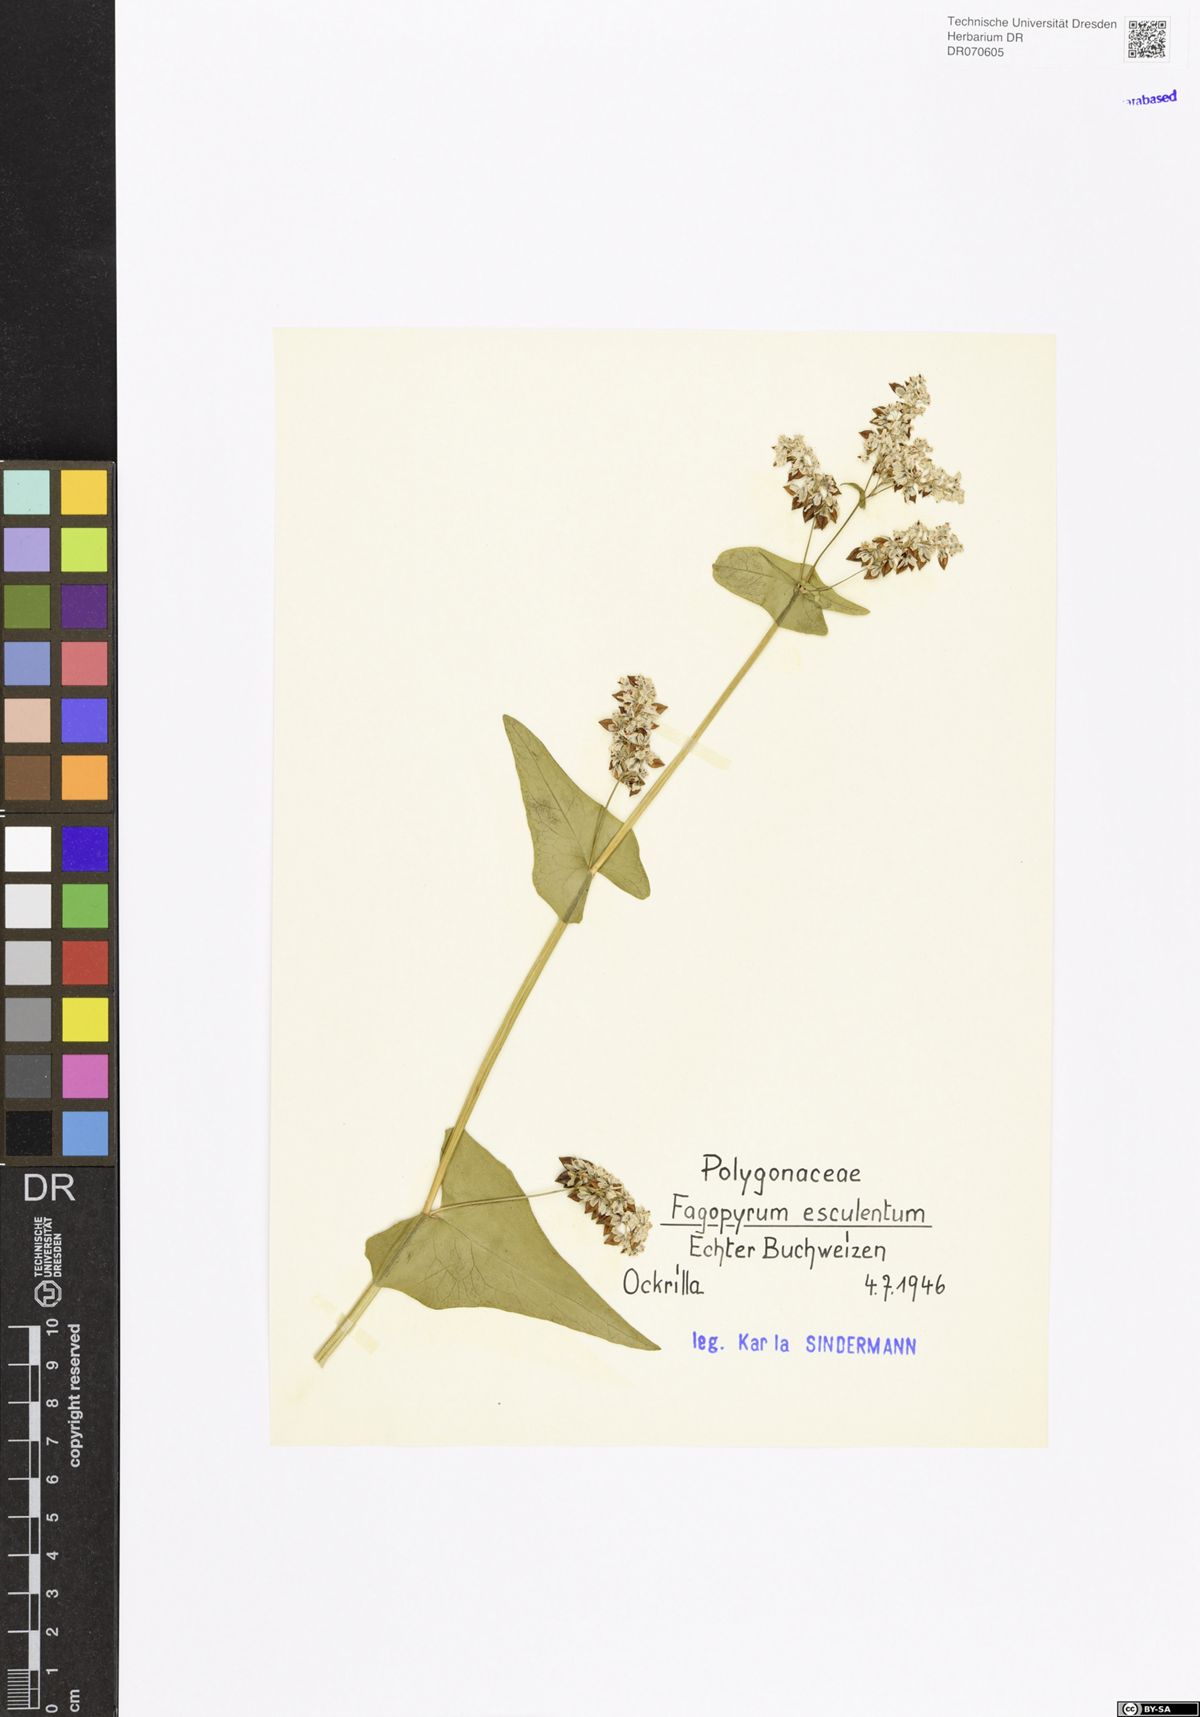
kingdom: Plantae
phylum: Tracheophyta
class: Magnoliopsida
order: Caryophyllales
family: Polygonaceae
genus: Fagopyrum
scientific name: Fagopyrum esculentum
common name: Buckwheat
